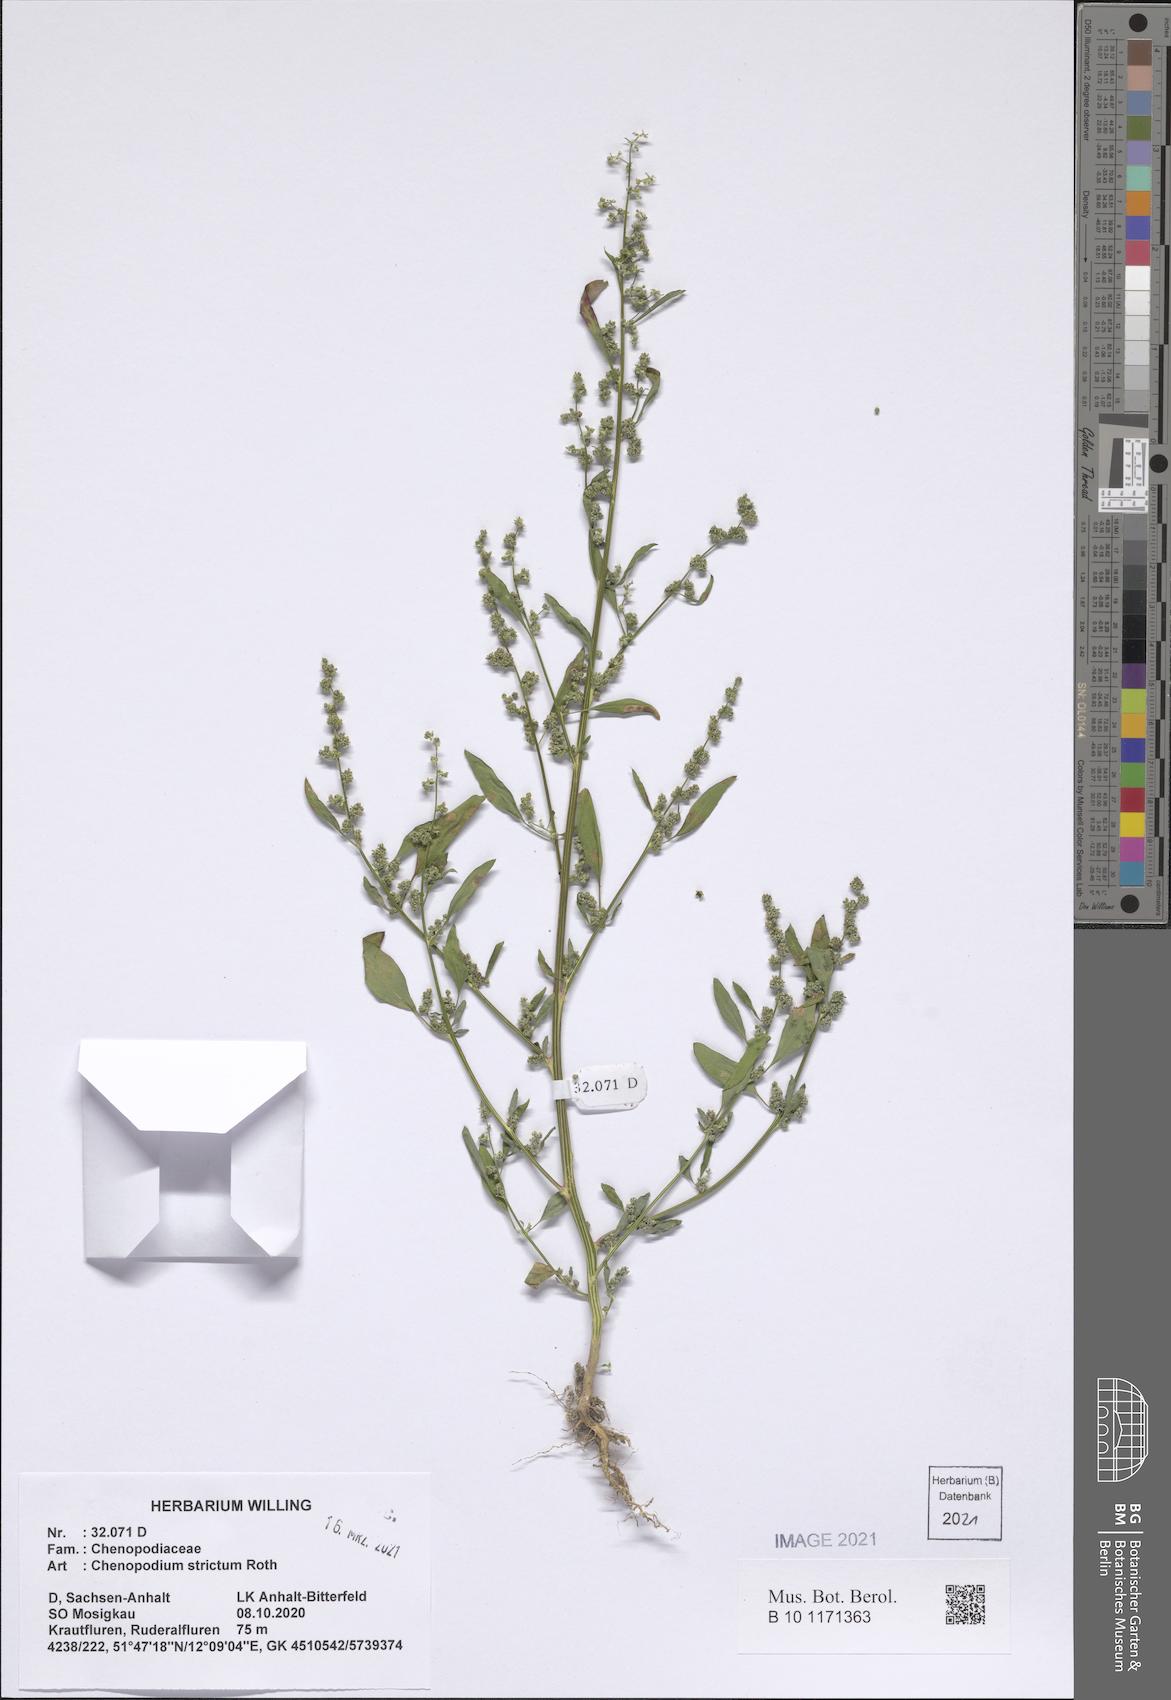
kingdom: Plantae
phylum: Tracheophyta
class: Magnoliopsida
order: Caryophyllales
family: Amaranthaceae
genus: Chenopodium
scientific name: Chenopodium album
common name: Fat-hen
